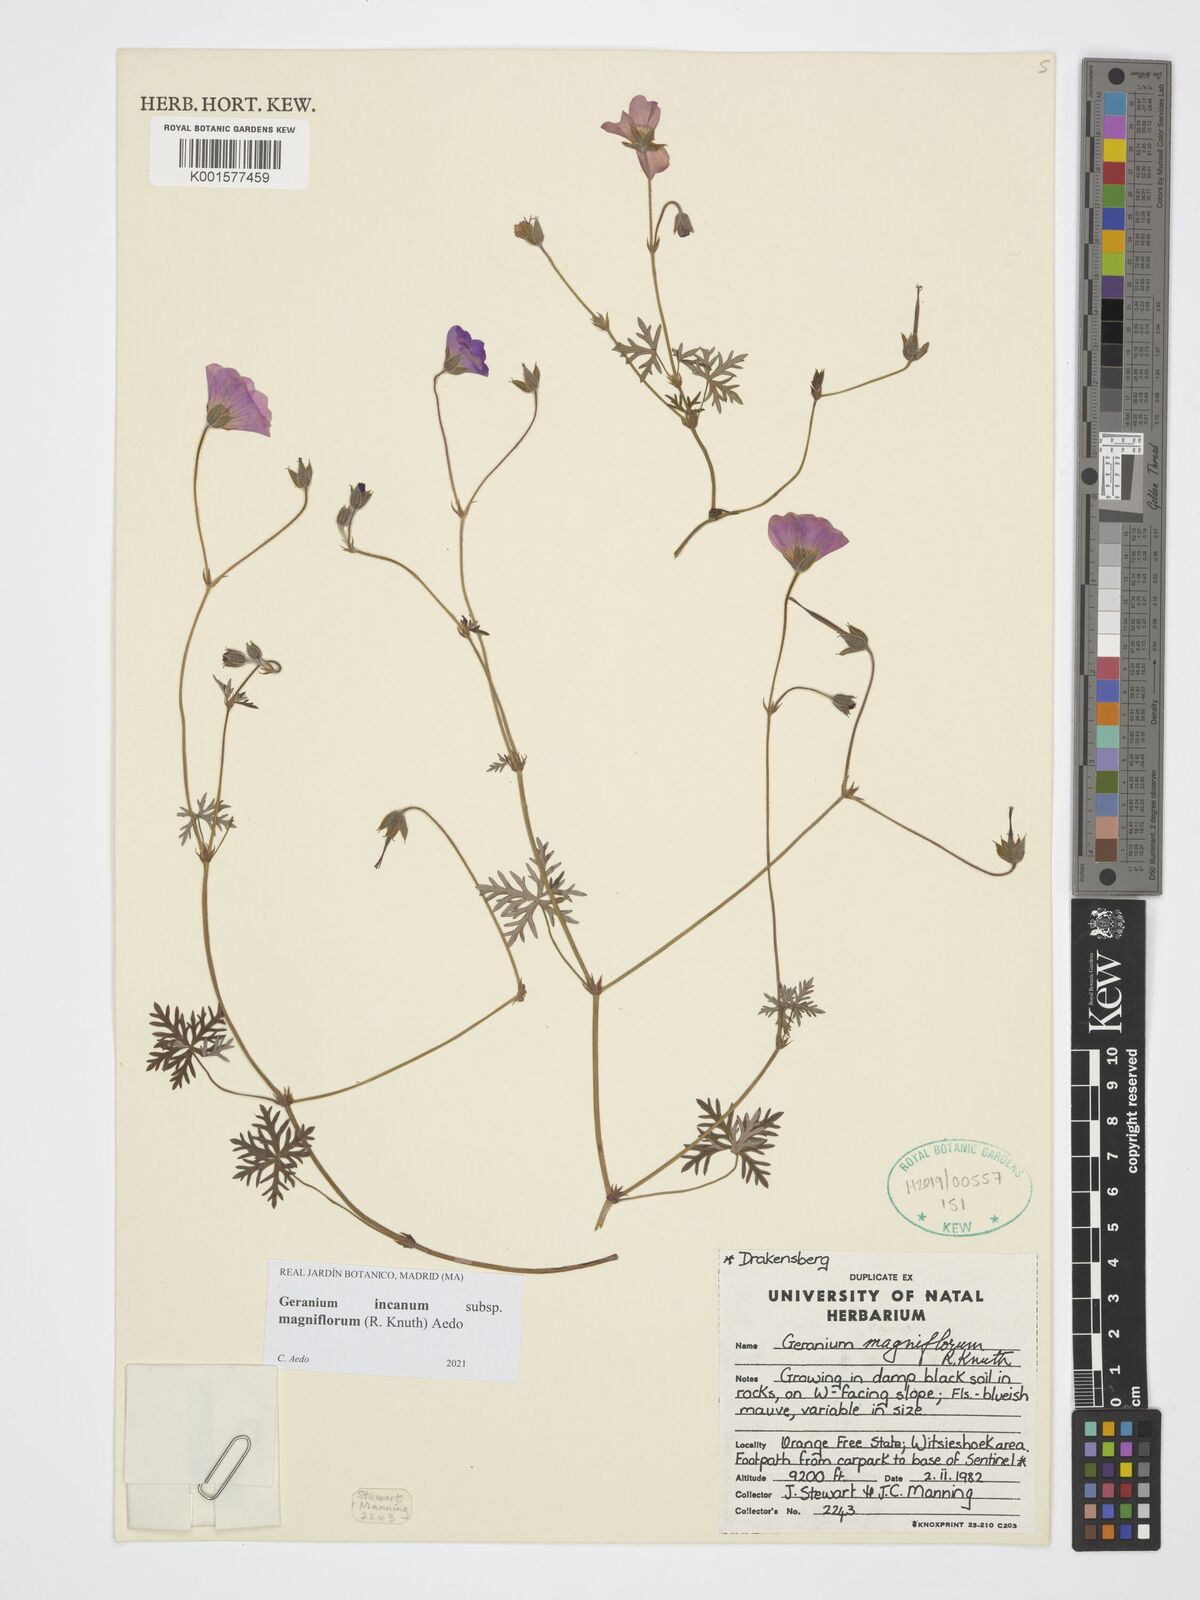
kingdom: Plantae
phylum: Tracheophyta
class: Magnoliopsida
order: Geraniales
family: Geraniaceae
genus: Geranium
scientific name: Geranium incanum
